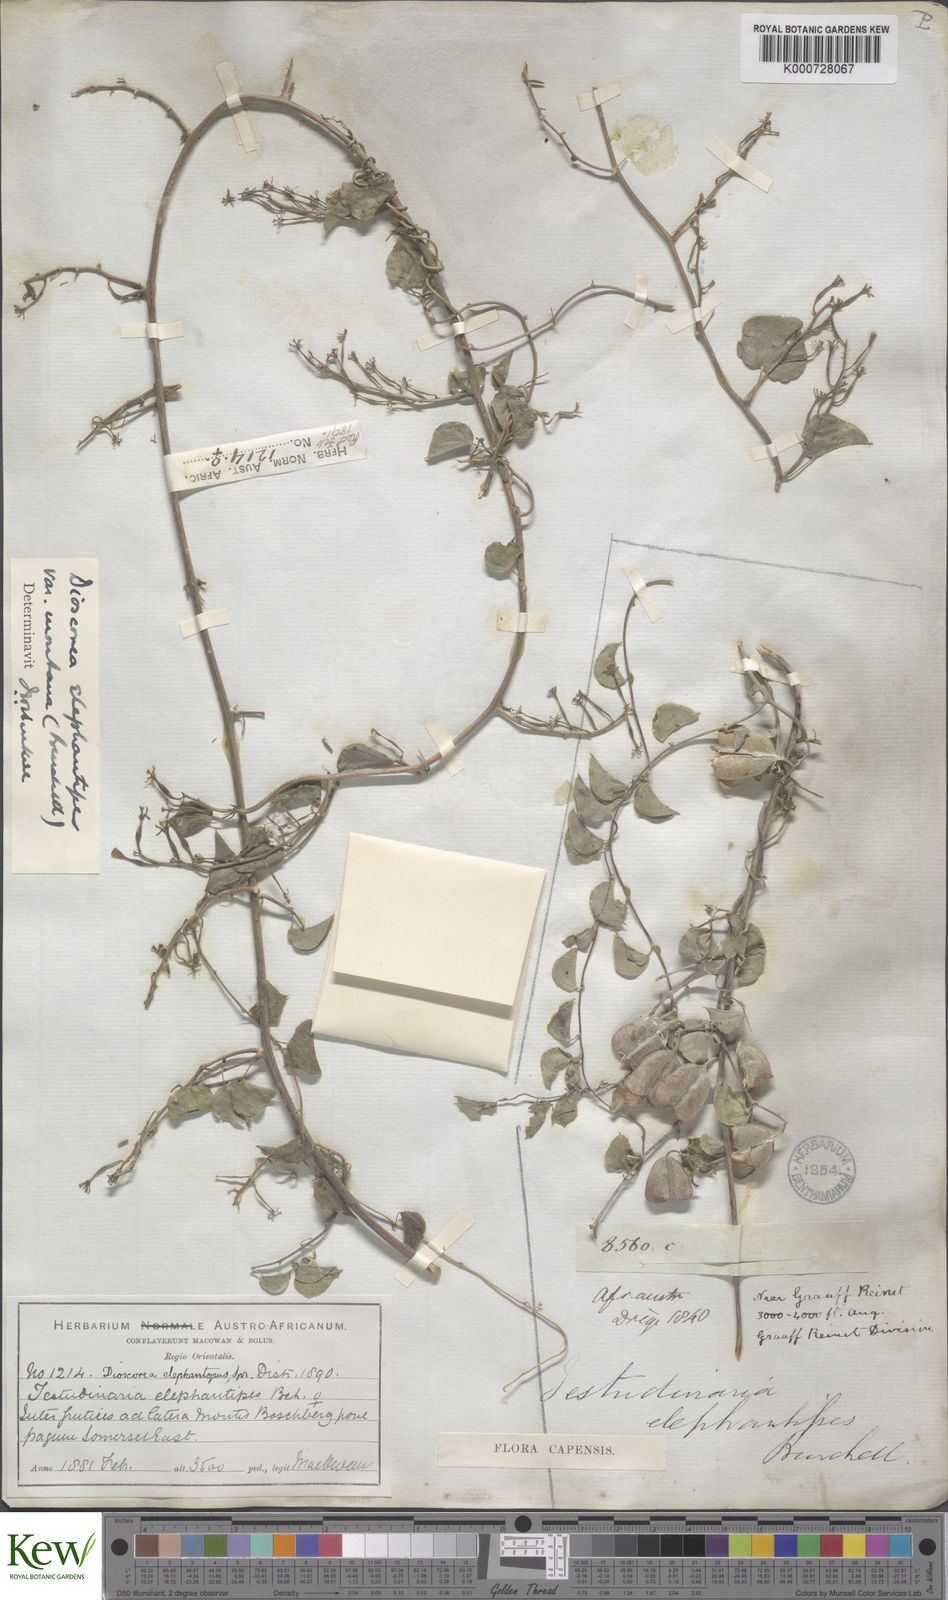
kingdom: Plantae
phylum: Tracheophyta
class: Liliopsida
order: Dioscoreales
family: Dioscoreaceae
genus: Dioscorea
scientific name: Dioscorea
